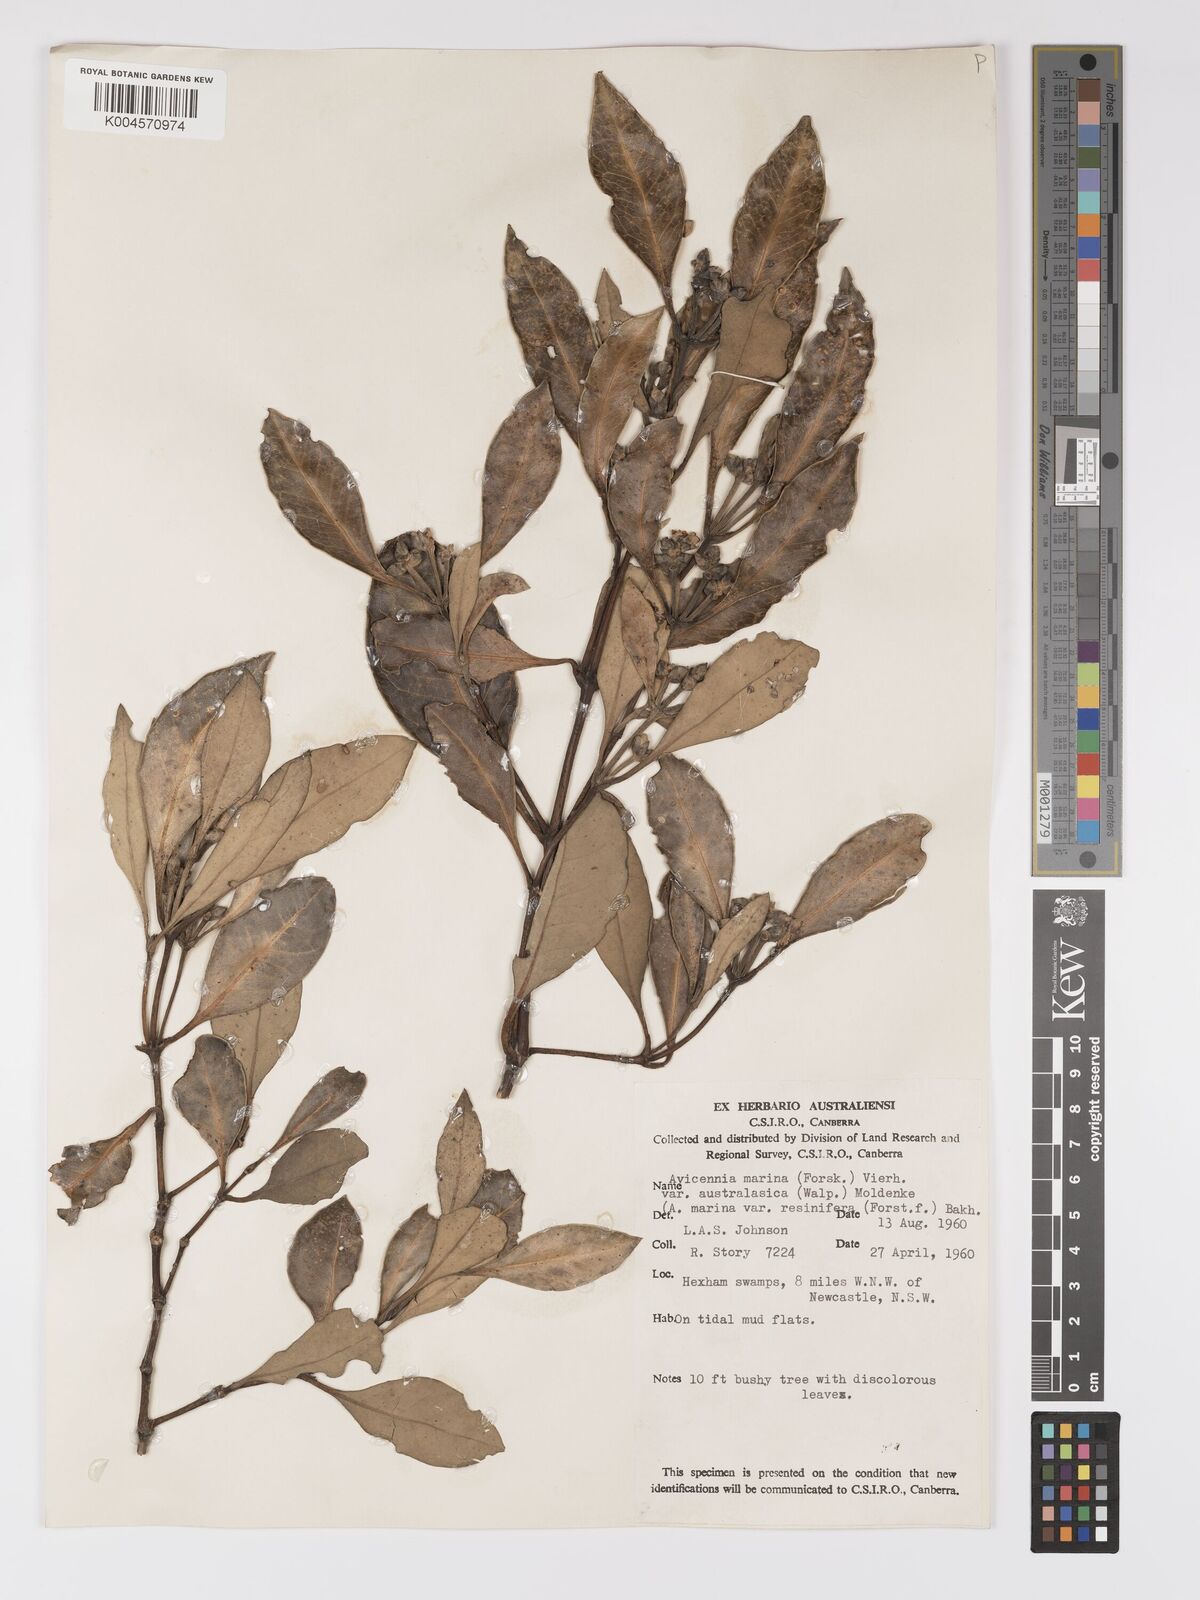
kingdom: Plantae
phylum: Tracheophyta
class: Magnoliopsida
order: Lamiales
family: Acanthaceae
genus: Avicennia
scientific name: Avicennia marina
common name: Gray mangrove
